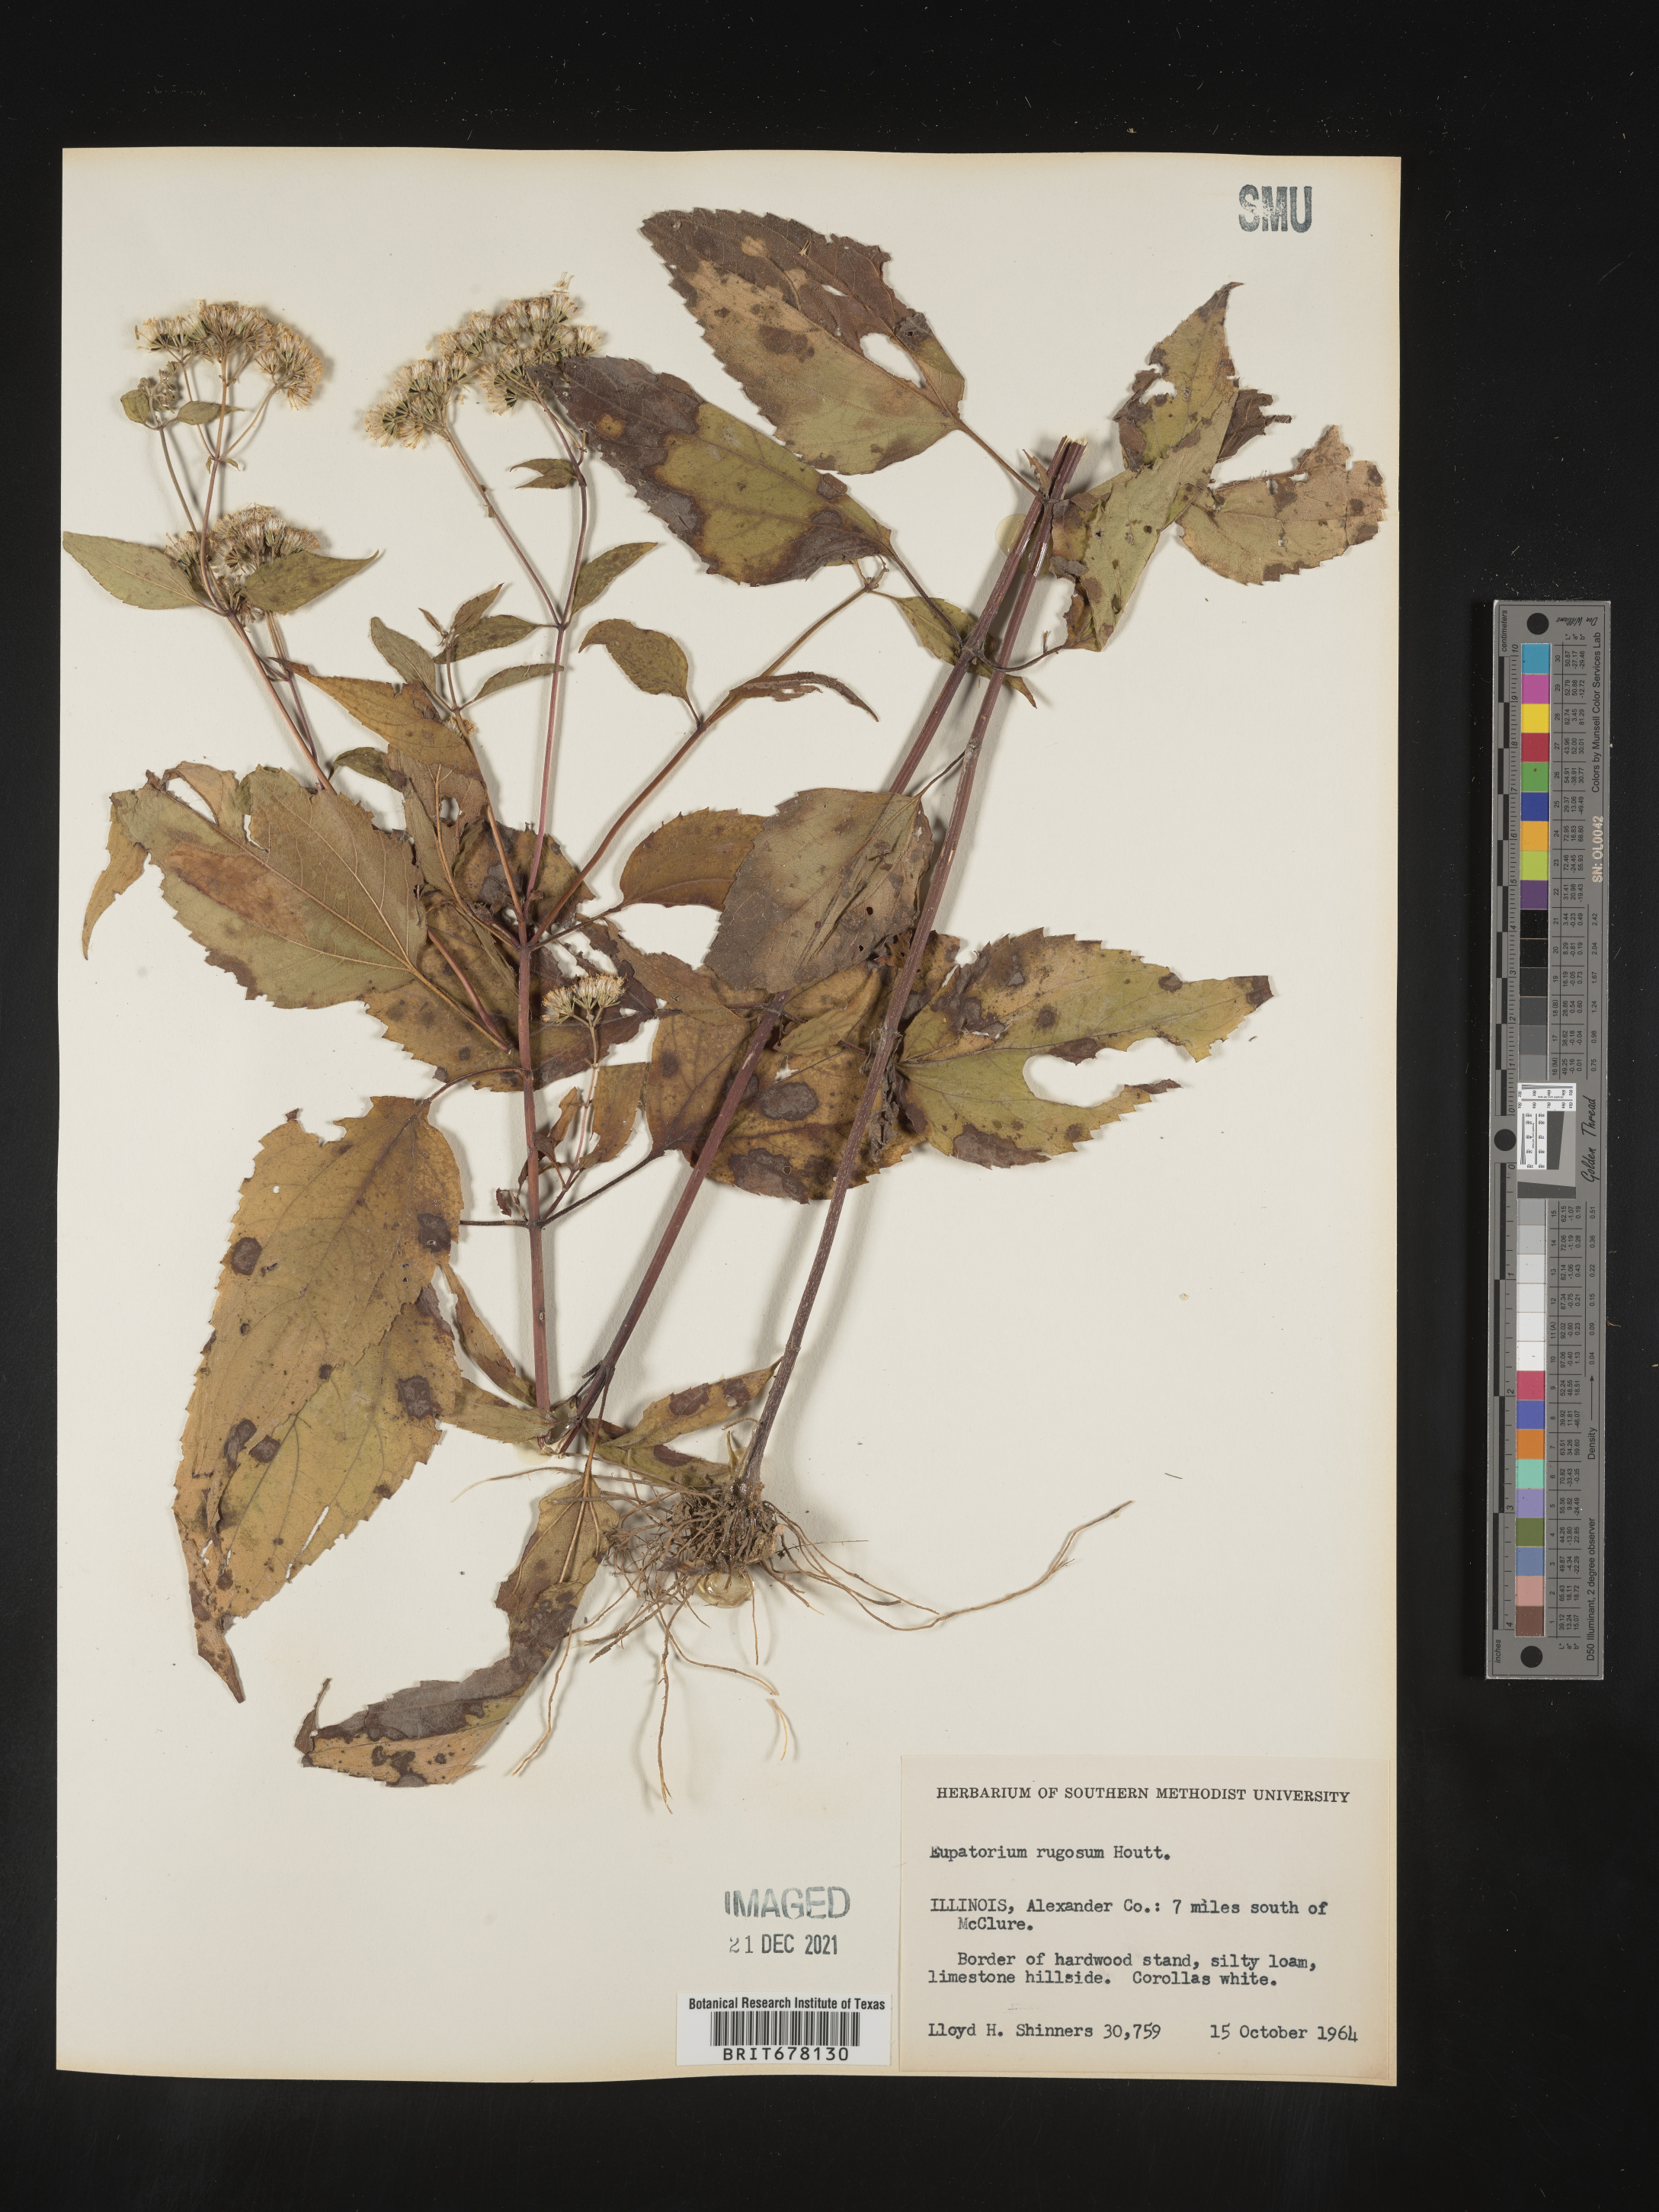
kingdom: Plantae
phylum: Tracheophyta
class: Magnoliopsida
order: Asterales
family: Asteraceae
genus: Cronquistianthus
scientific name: Cronquistianthus bulliferus
